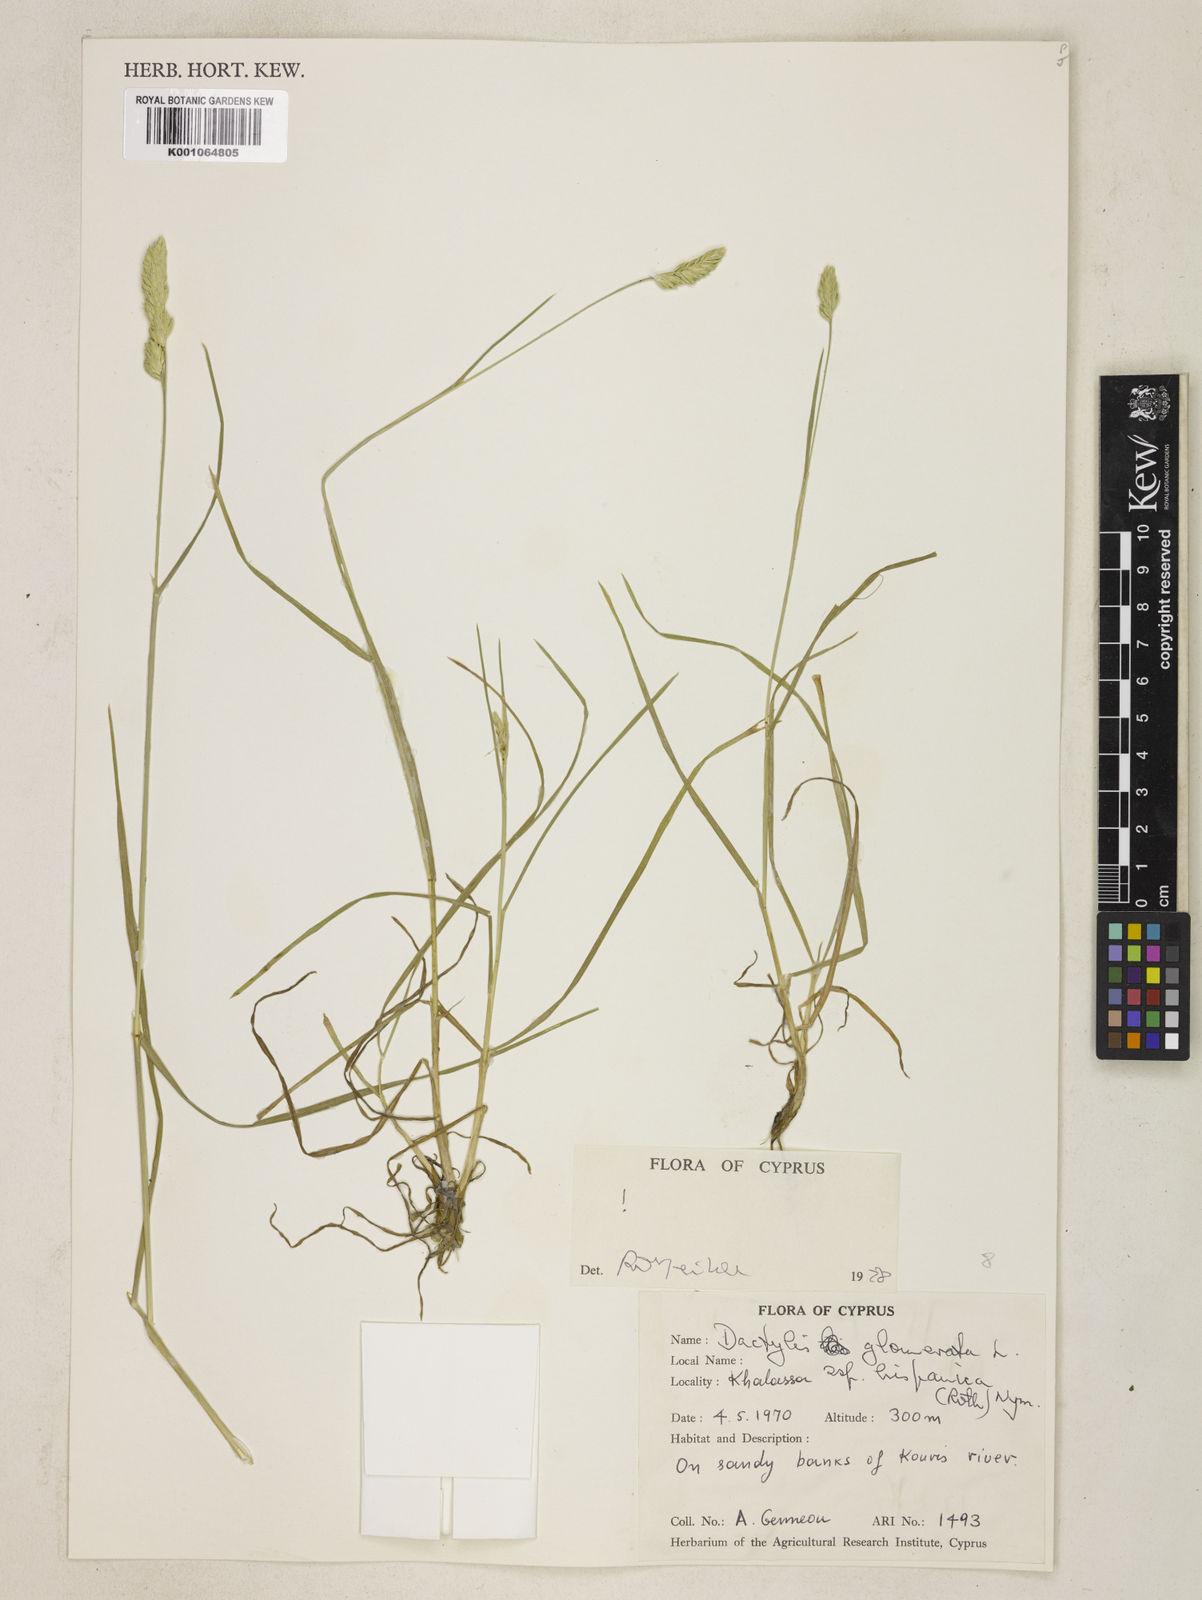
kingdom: Plantae
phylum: Tracheophyta
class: Liliopsida
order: Poales
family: Poaceae
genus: Dactylis
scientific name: Dactylis glomerata
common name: Orchardgrass
